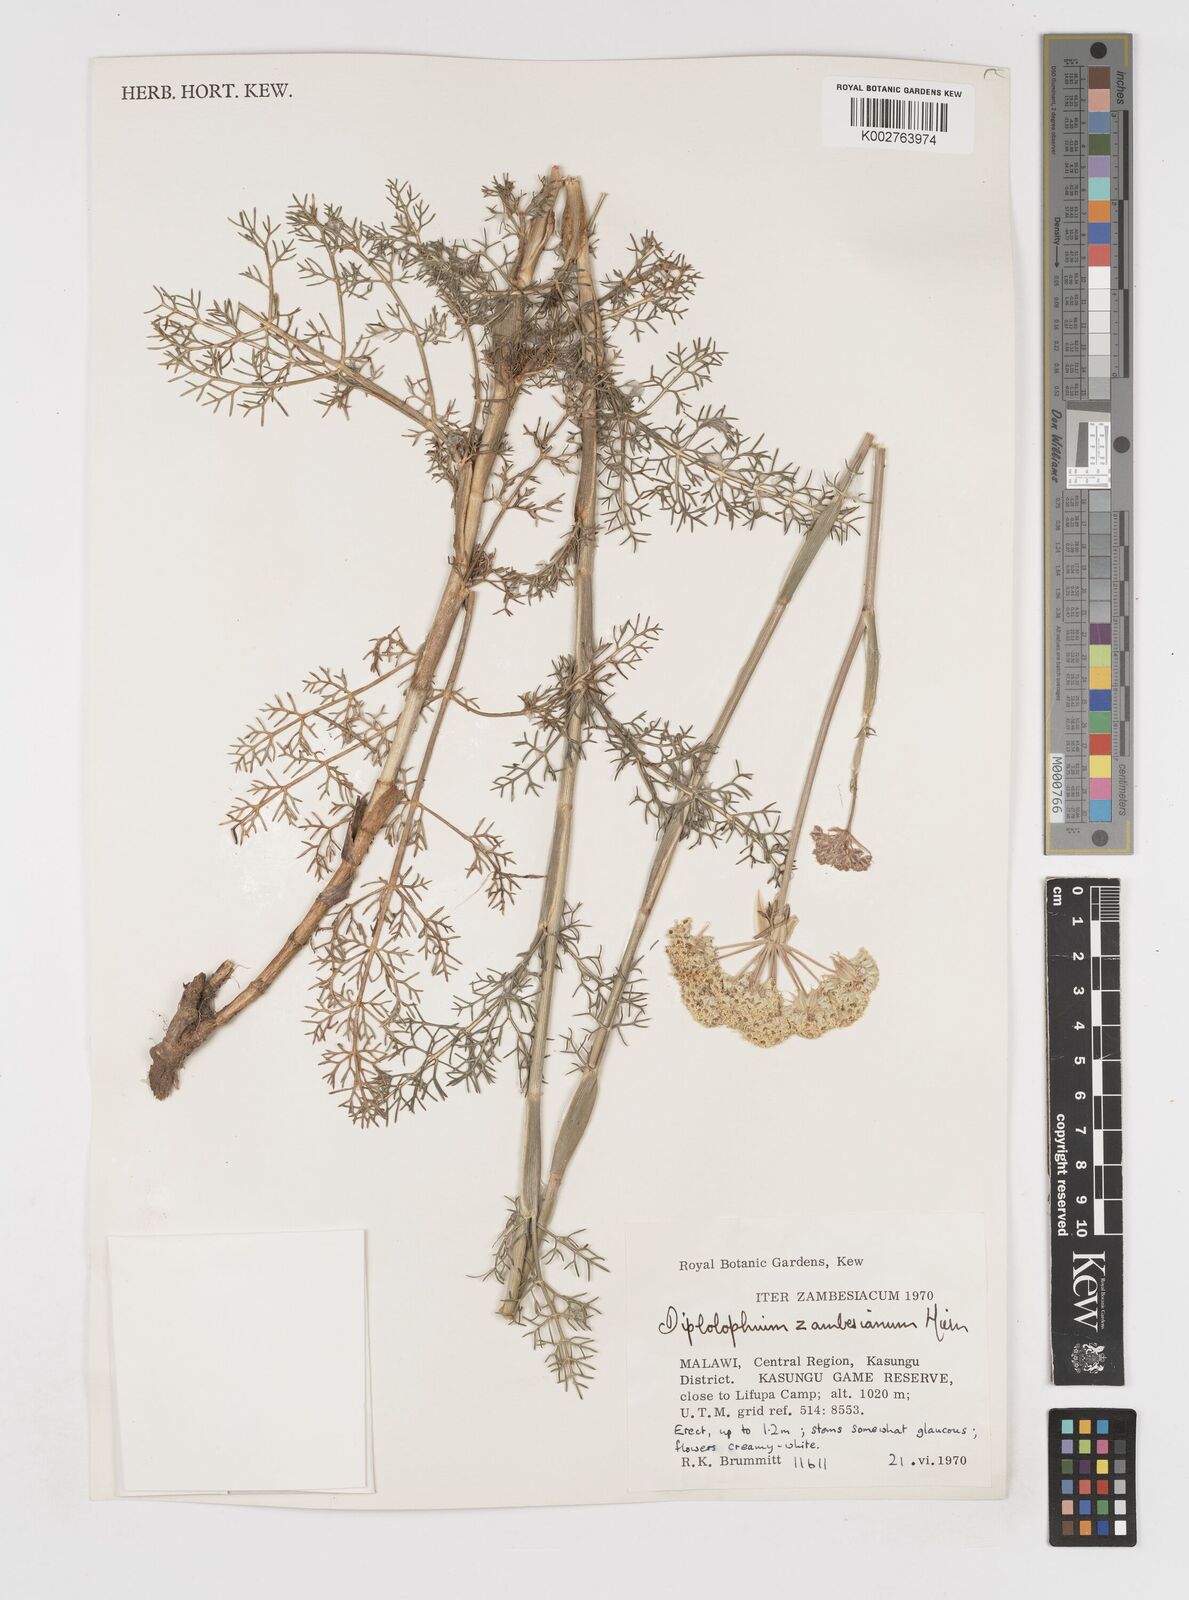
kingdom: Plantae
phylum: Tracheophyta
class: Magnoliopsida
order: Apiales
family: Apiaceae
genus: Diplolophium
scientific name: Diplolophium zambesianum
